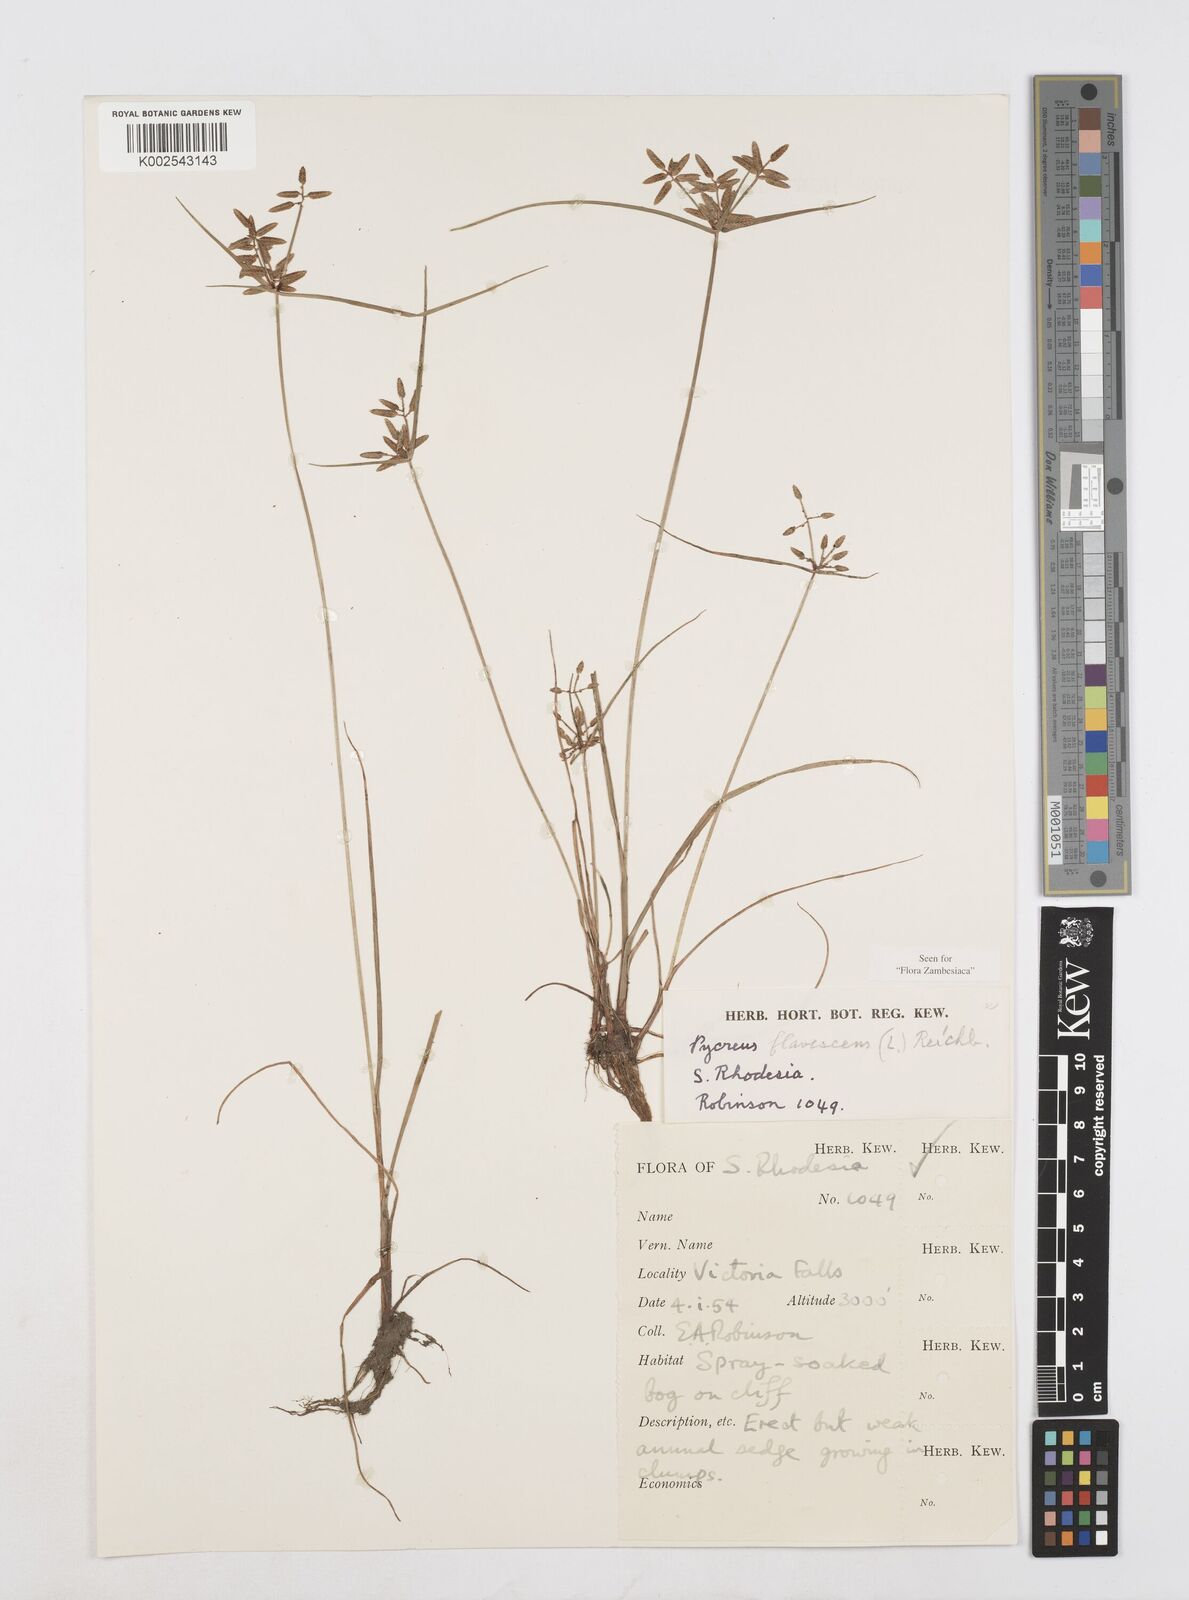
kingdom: Plantae
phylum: Tracheophyta
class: Liliopsida
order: Poales
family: Cyperaceae
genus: Cyperus
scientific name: Cyperus flavescens
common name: Yellow galingale
